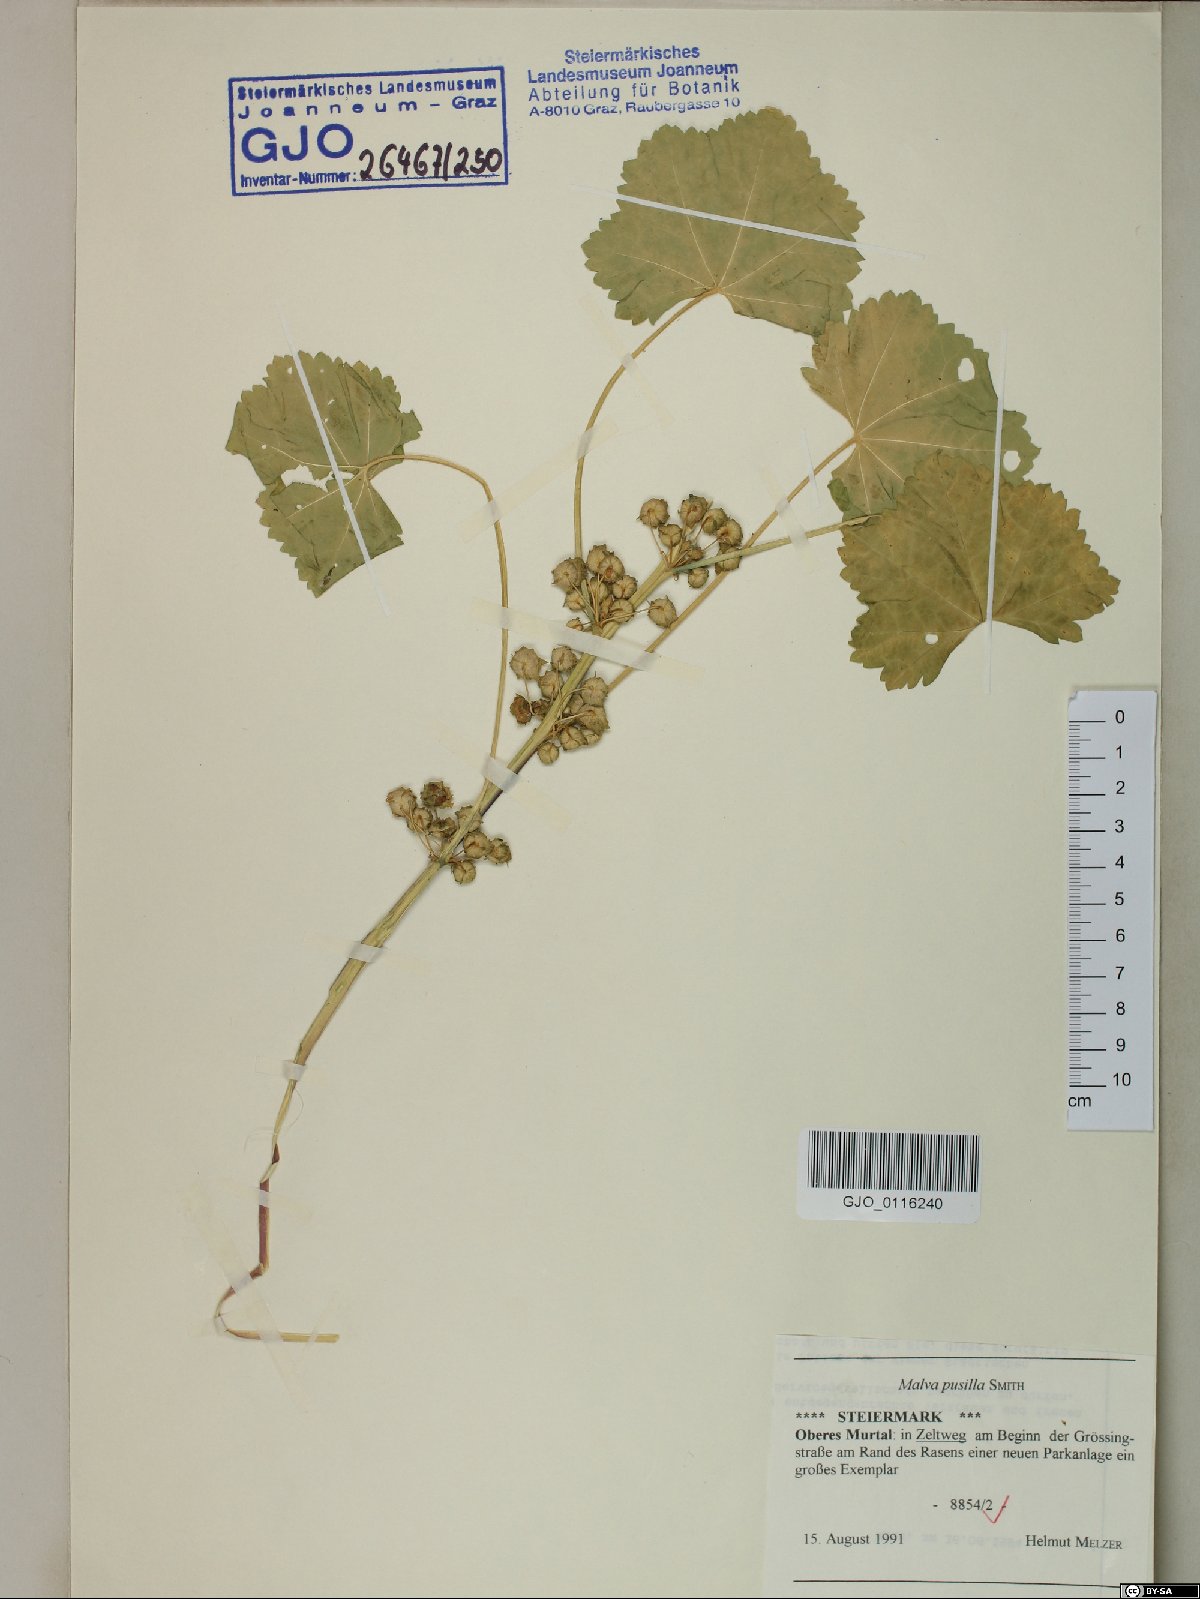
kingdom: Plantae
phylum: Tracheophyta
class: Magnoliopsida
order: Malvales
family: Malvaceae
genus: Malva
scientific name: Malva pusilla
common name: Small mallow
